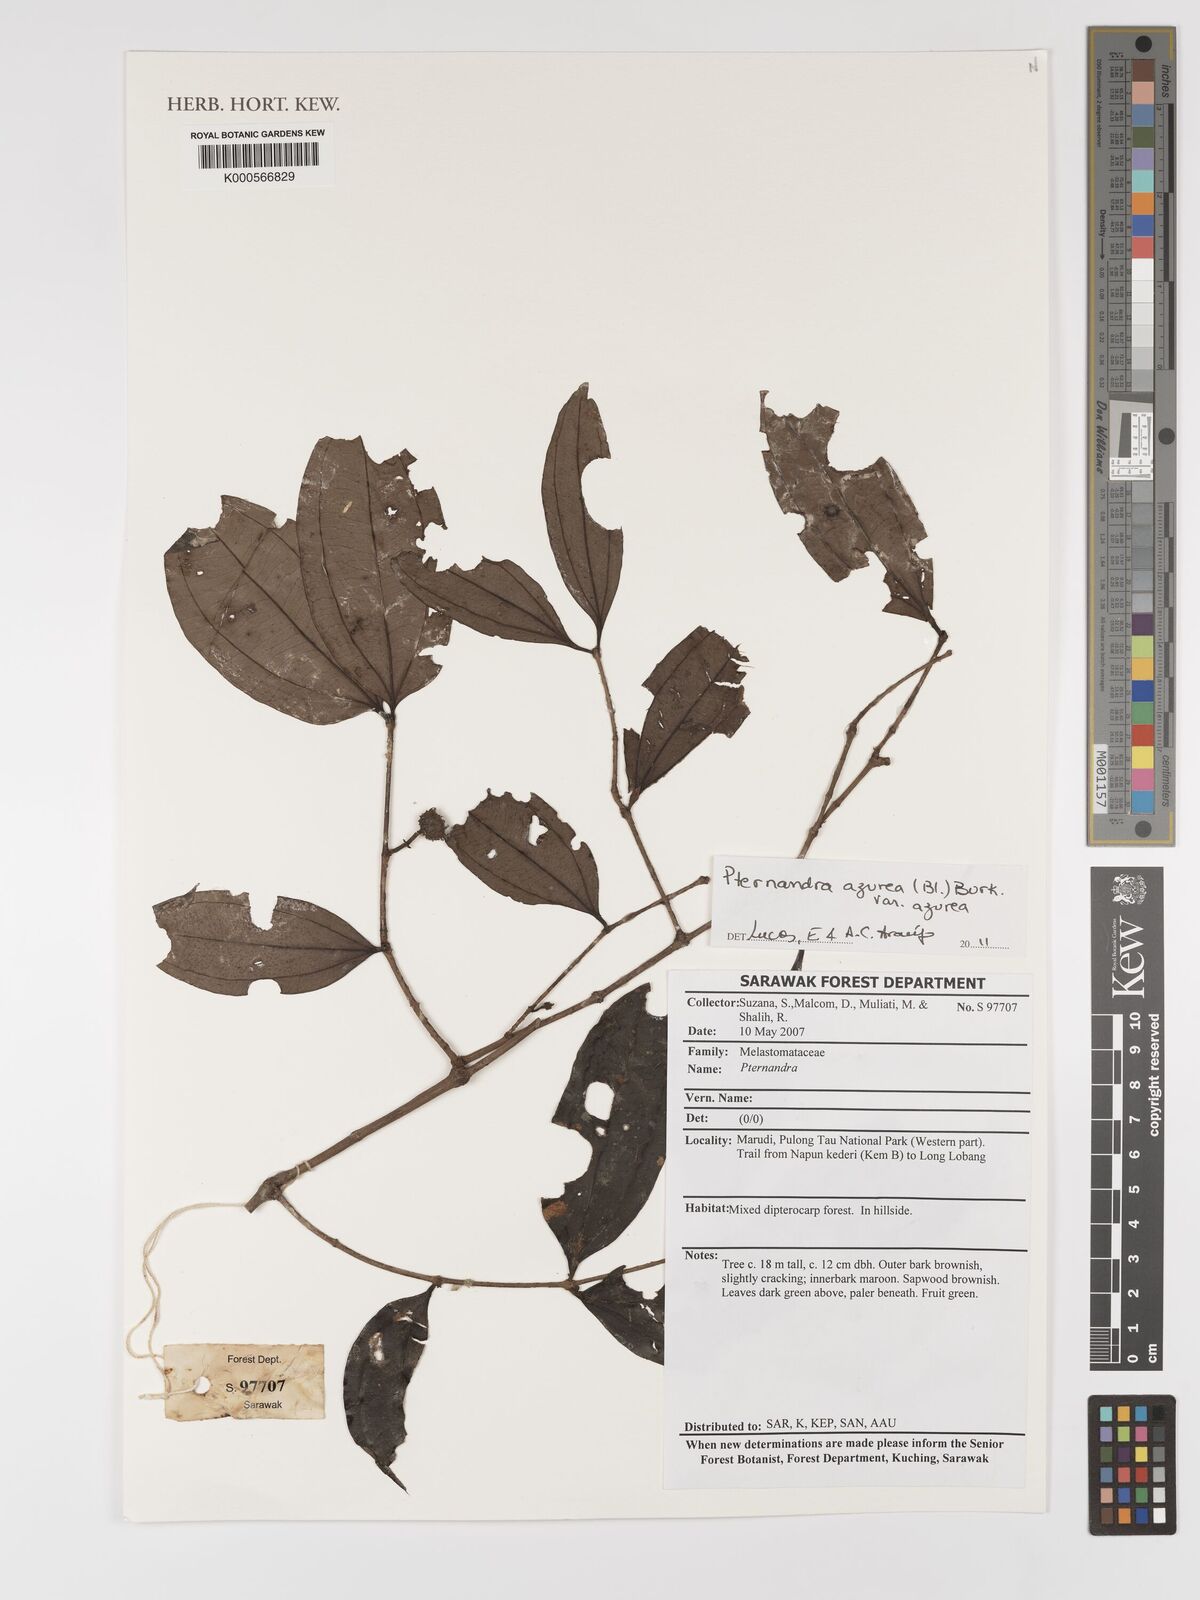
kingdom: Plantae
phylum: Tracheophyta
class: Magnoliopsida
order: Myrtales
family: Melastomataceae
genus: Pternandra
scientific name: Pternandra azurea
